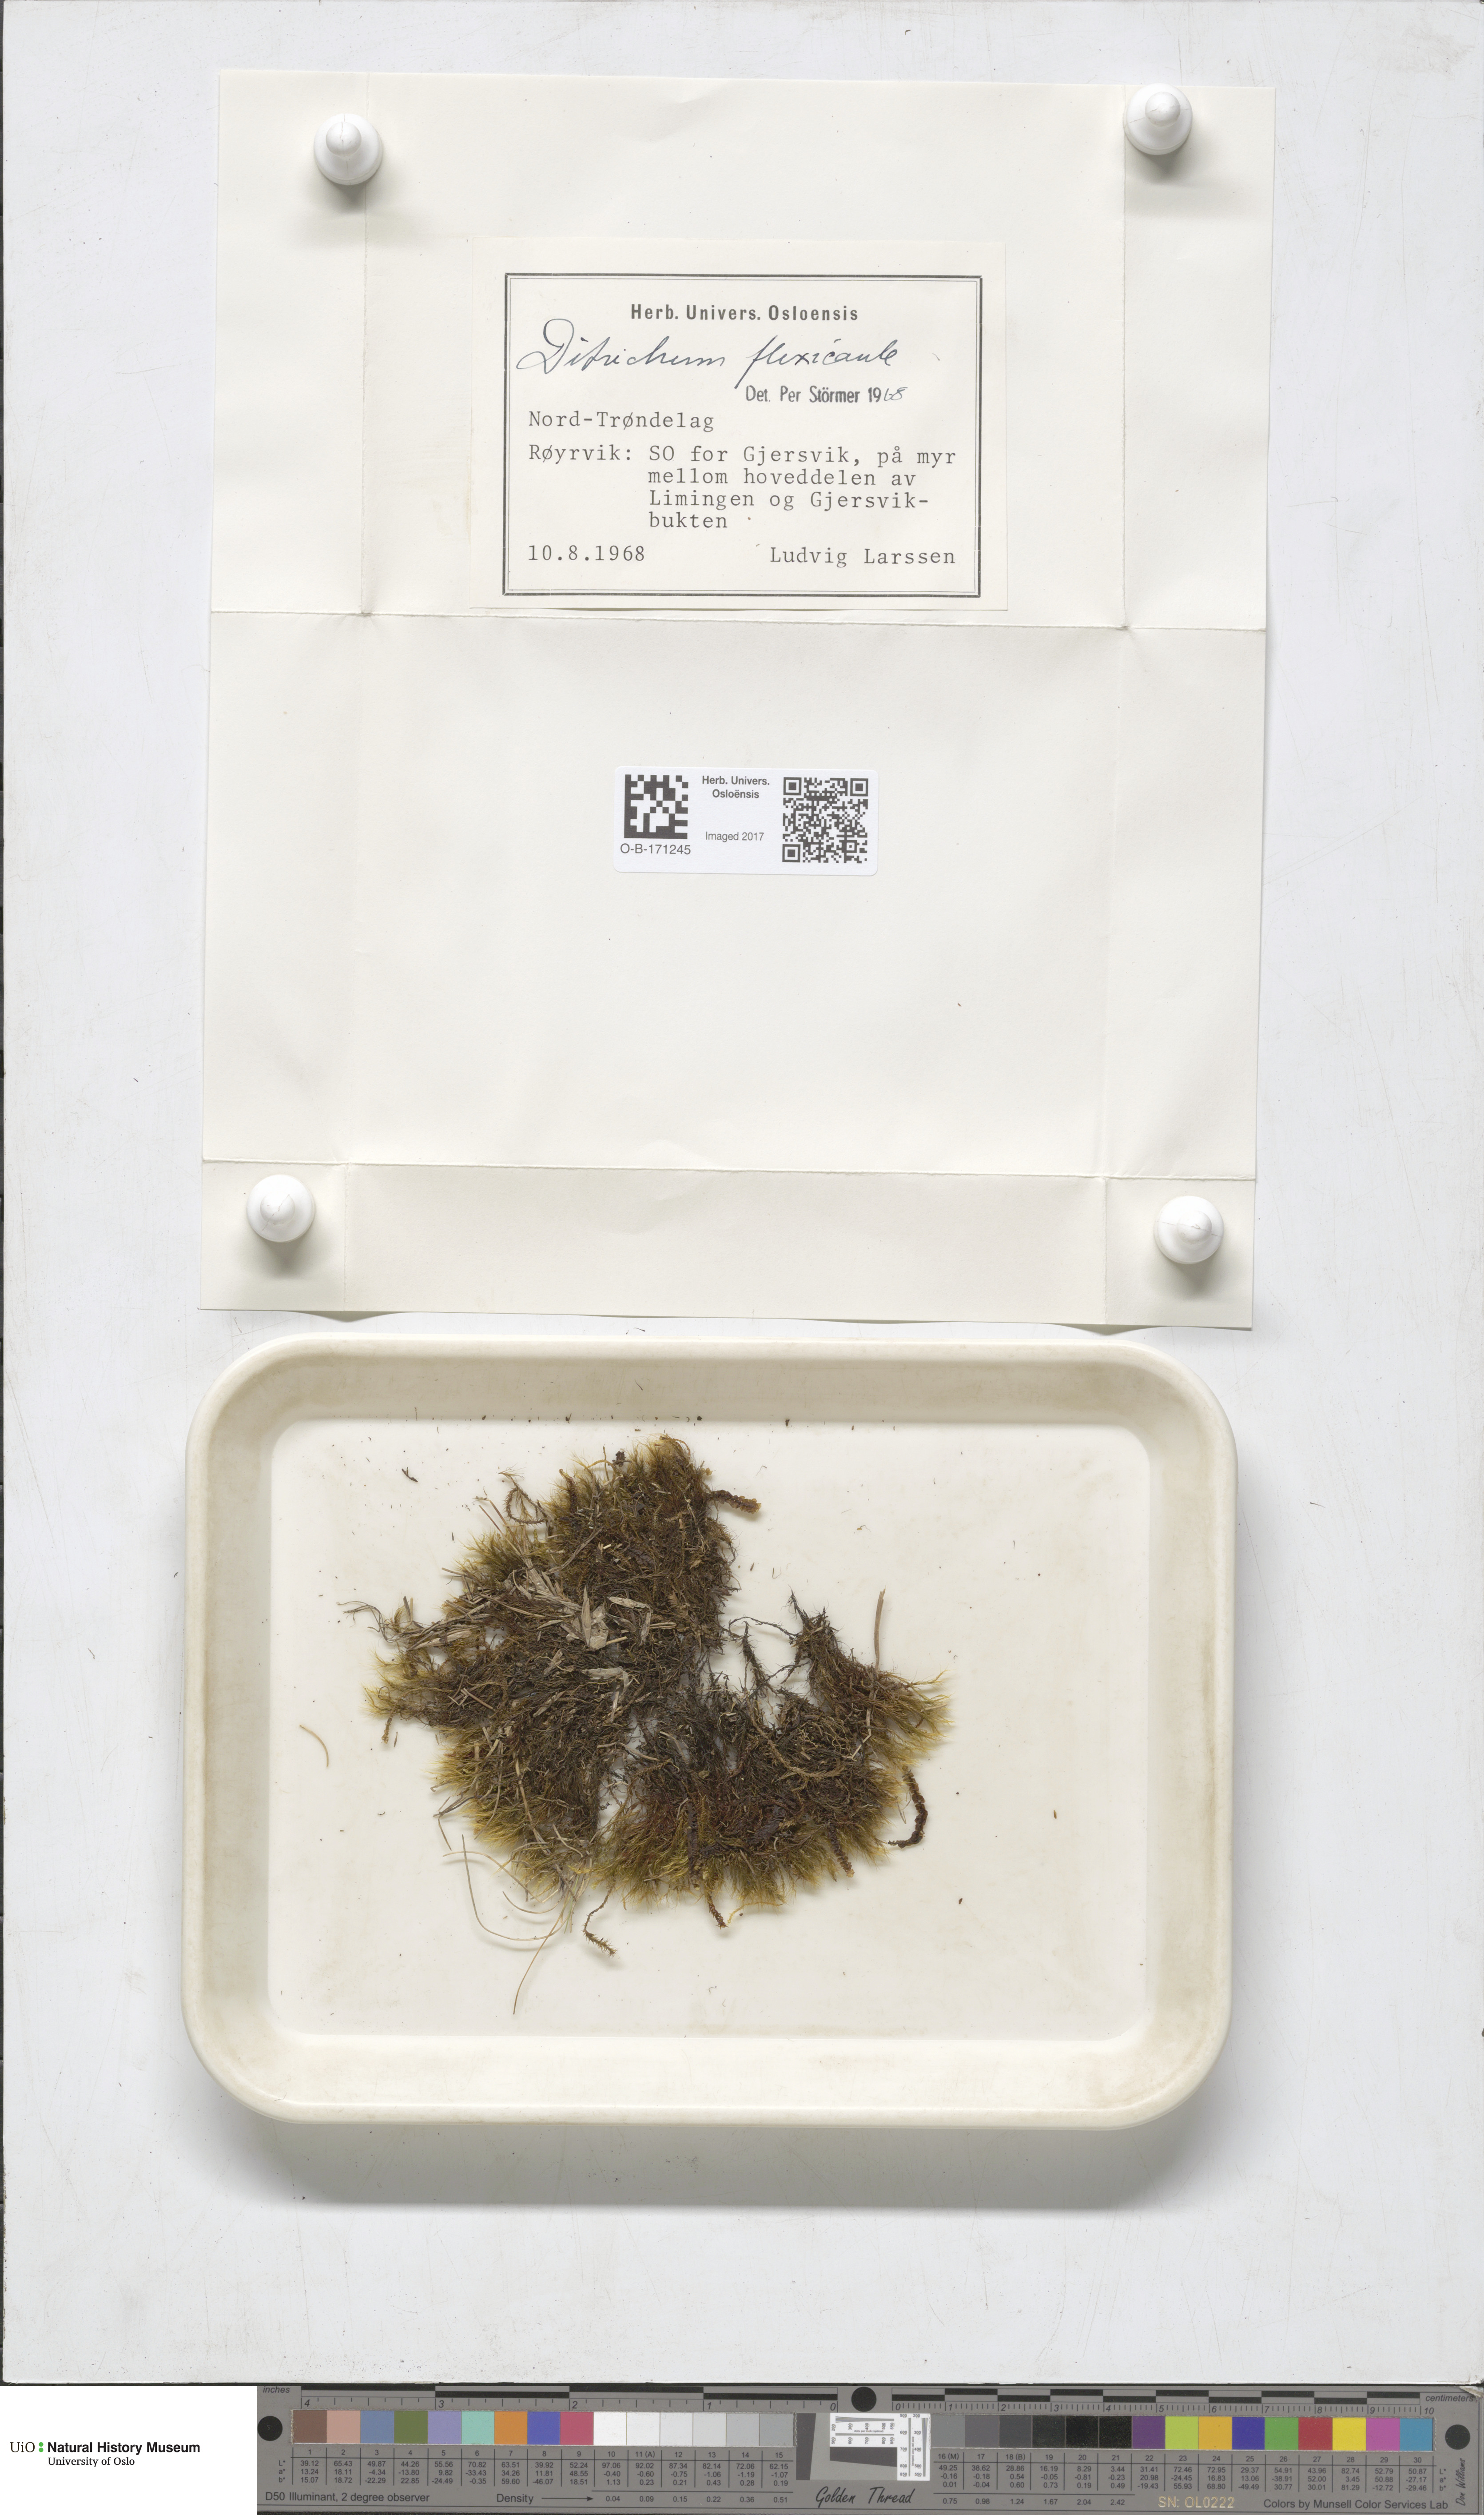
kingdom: Plantae
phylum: Bryophyta
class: Bryopsida
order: Scouleriales
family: Flexitrichaceae
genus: Flexitrichum
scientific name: Flexitrichum flexicaule
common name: Bendy ditrichum
